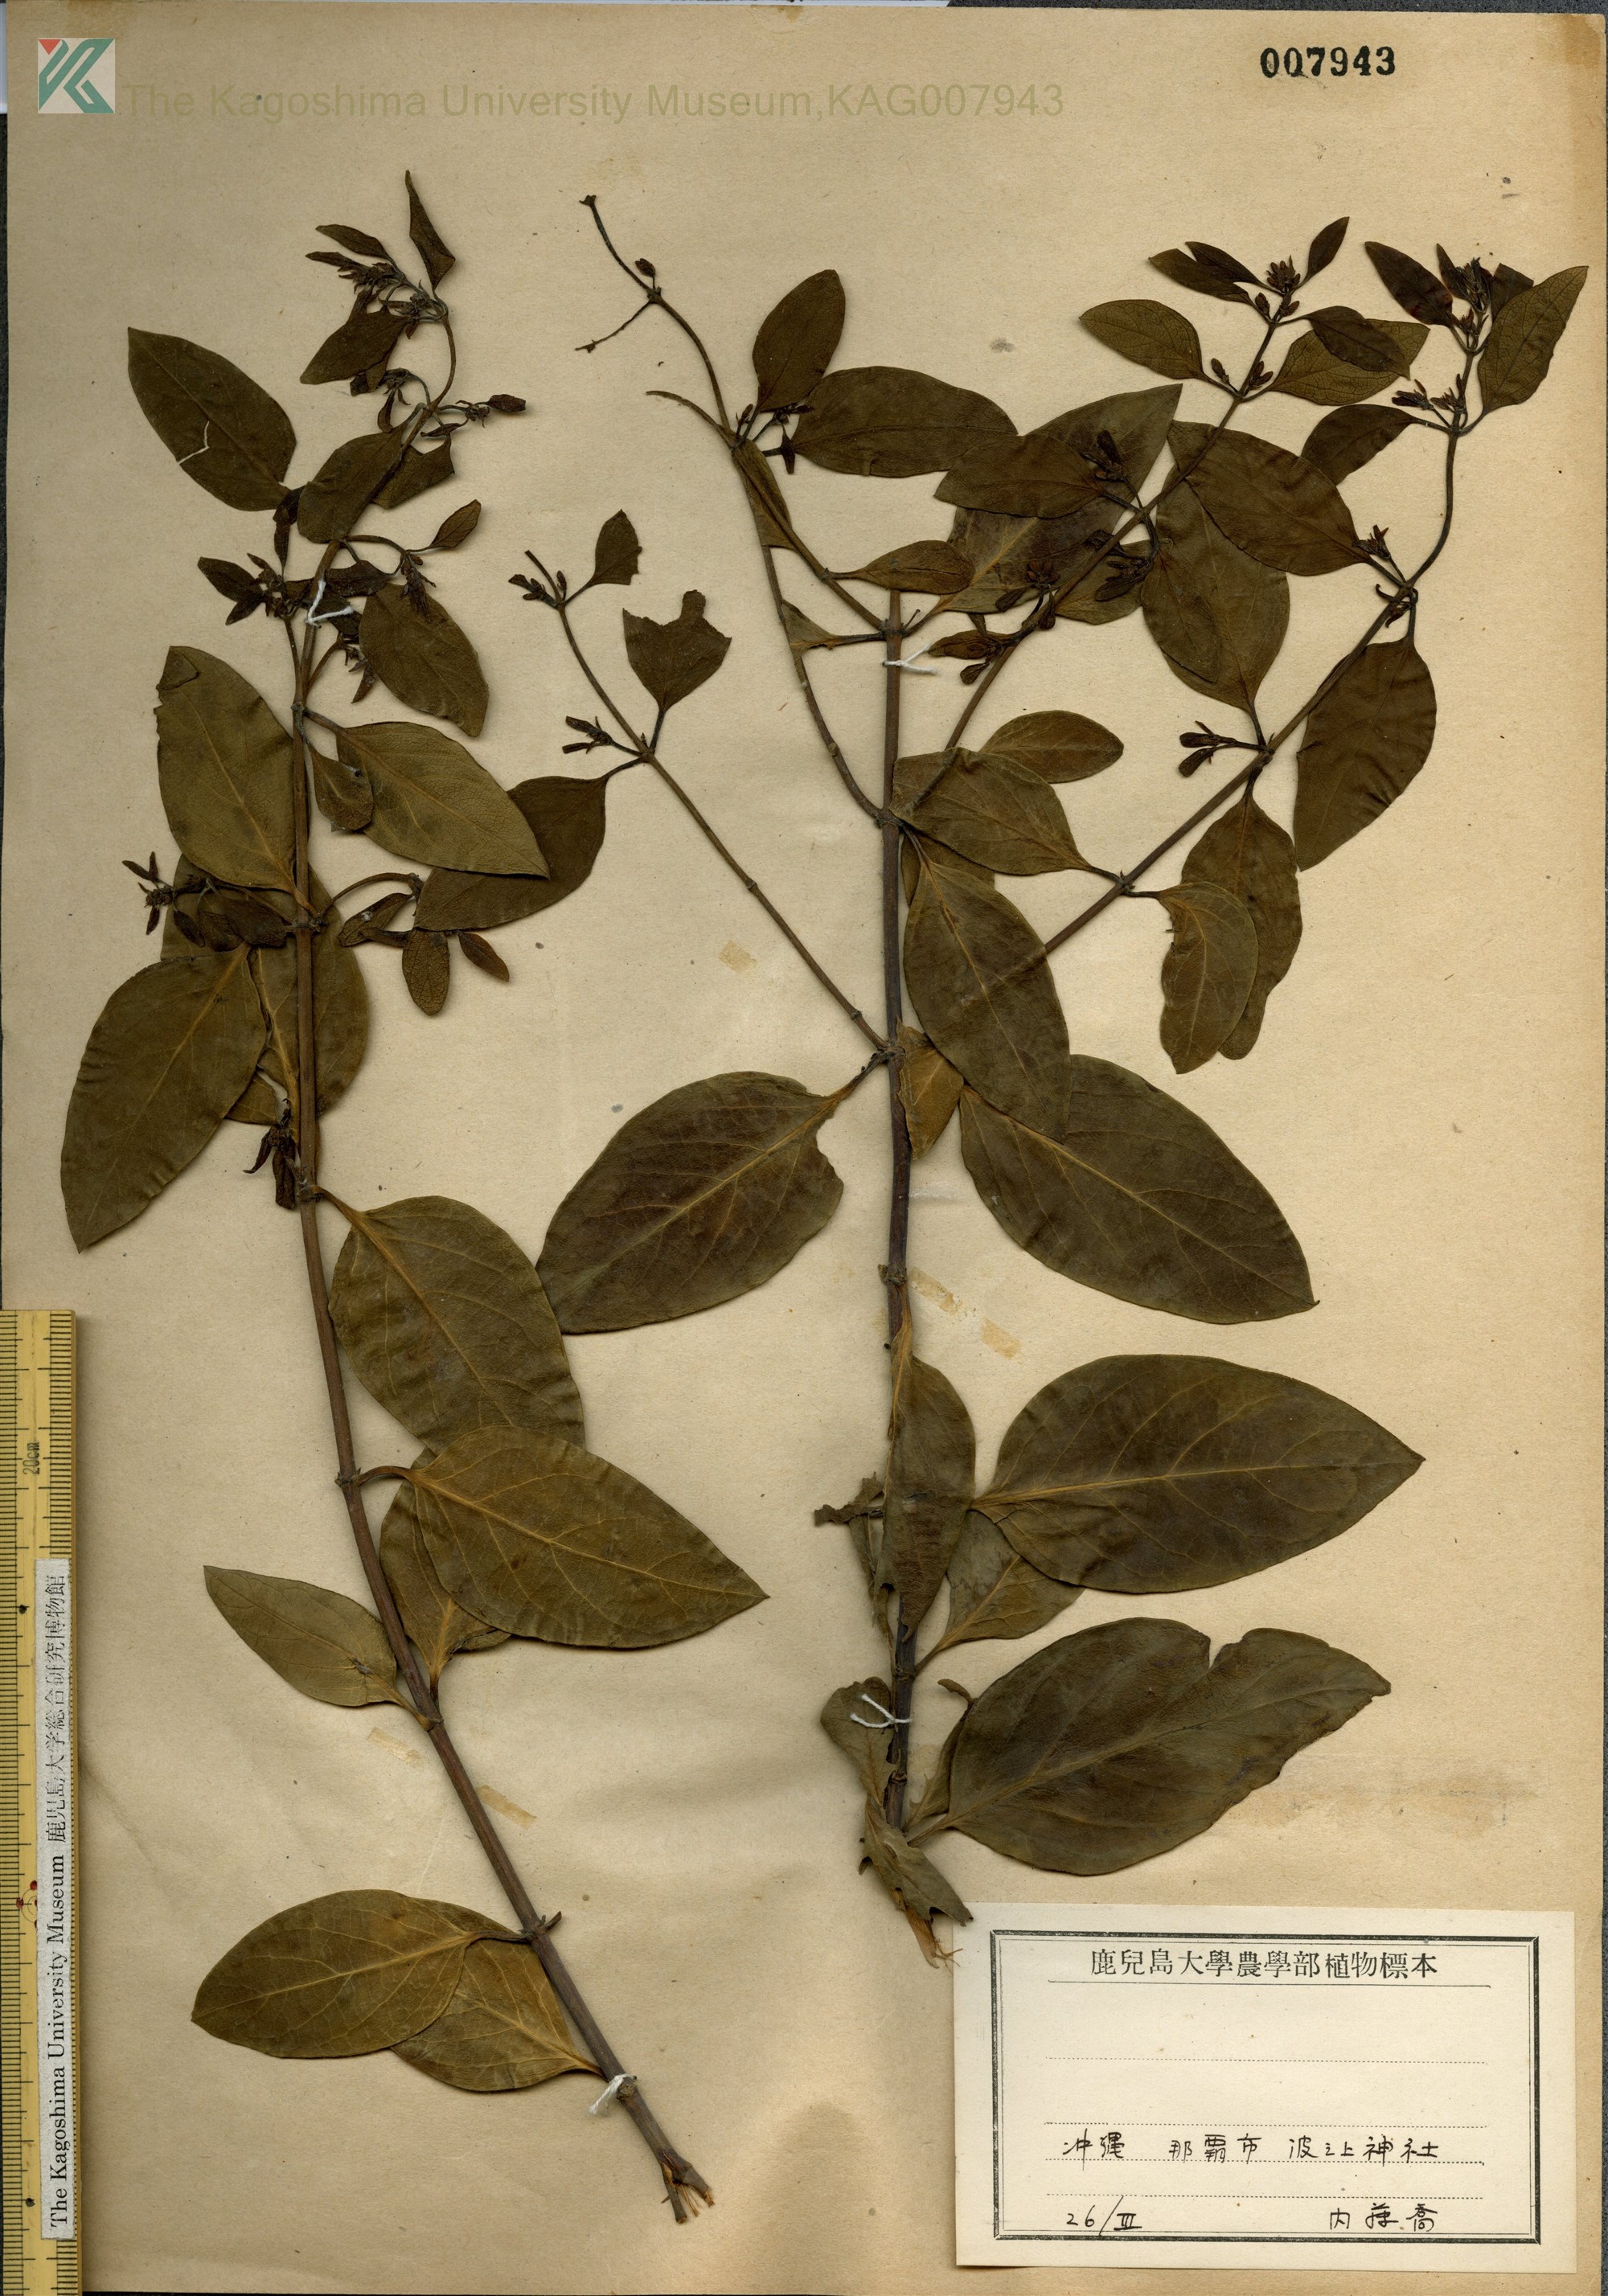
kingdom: Plantae
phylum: Tracheophyta
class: Magnoliopsida
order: Dipsacales
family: Caprifoliaceae
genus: Lonicera
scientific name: Lonicera affinis
